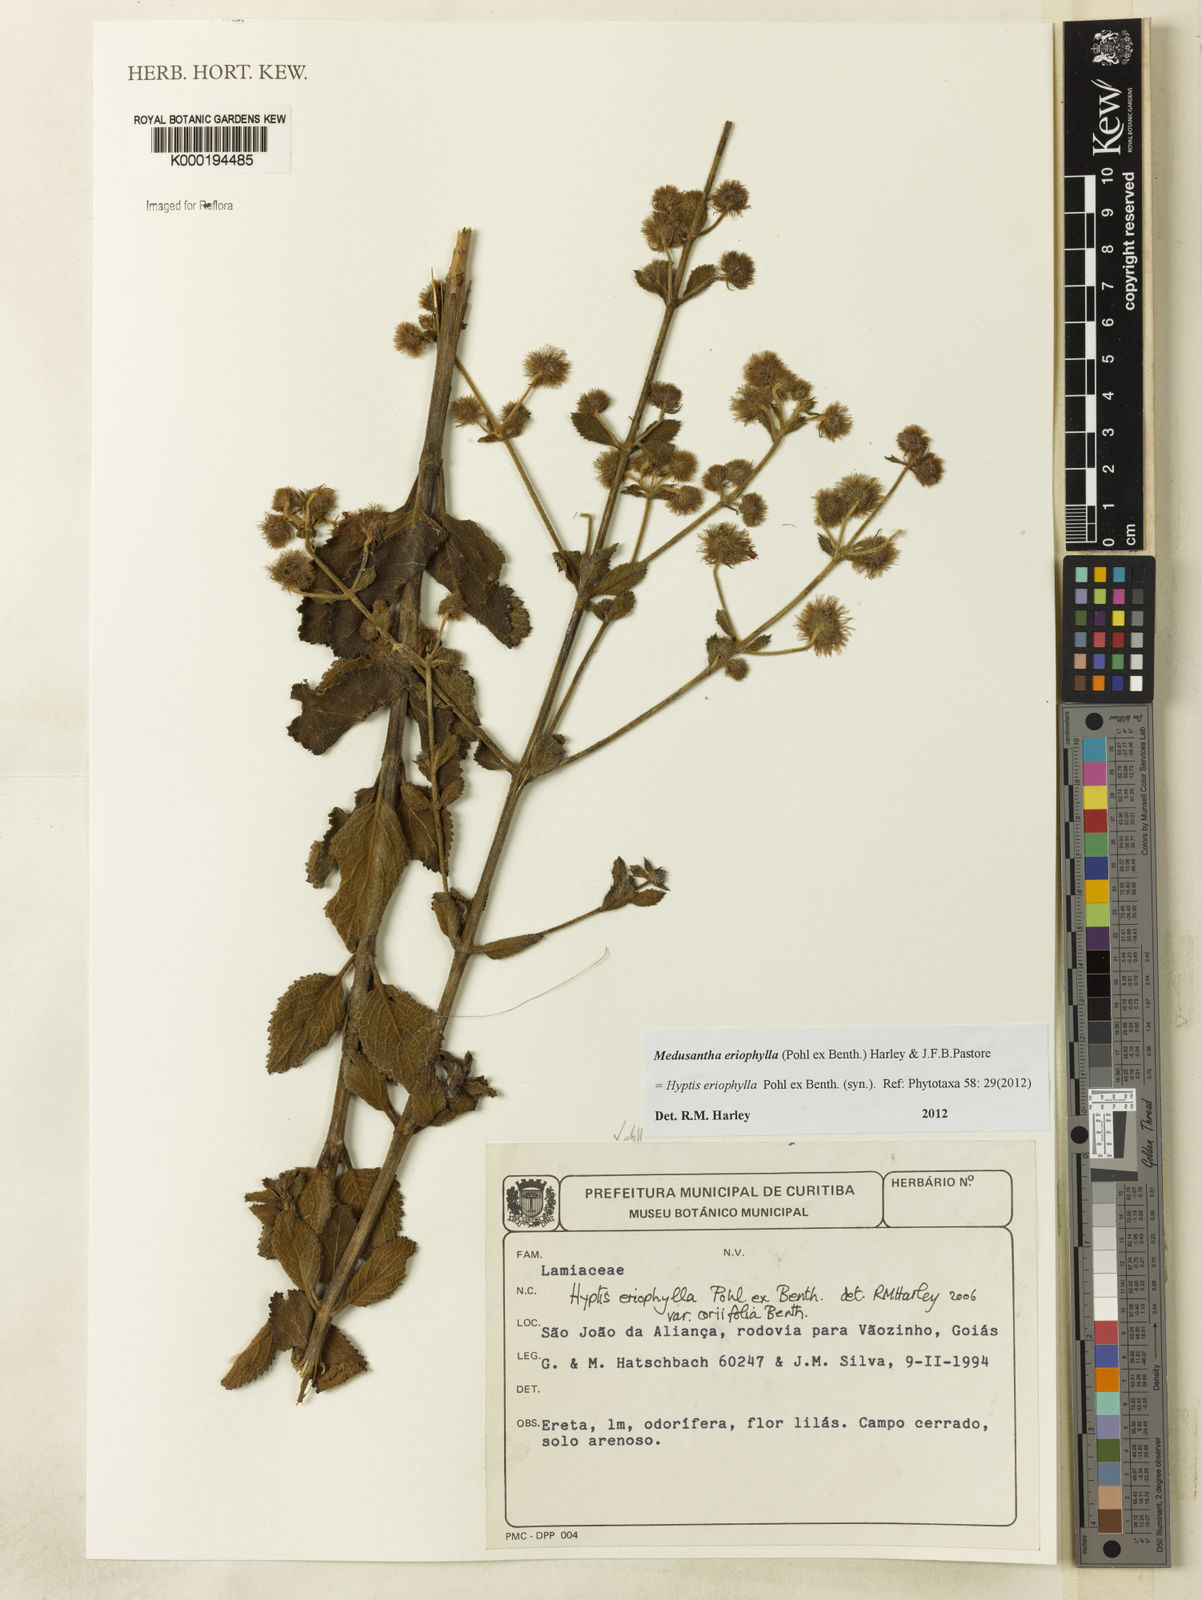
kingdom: Plantae
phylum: Tracheophyta
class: Magnoliopsida
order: Lamiales
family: Lamiaceae
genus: Medusantha
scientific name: Medusantha eriophylla
